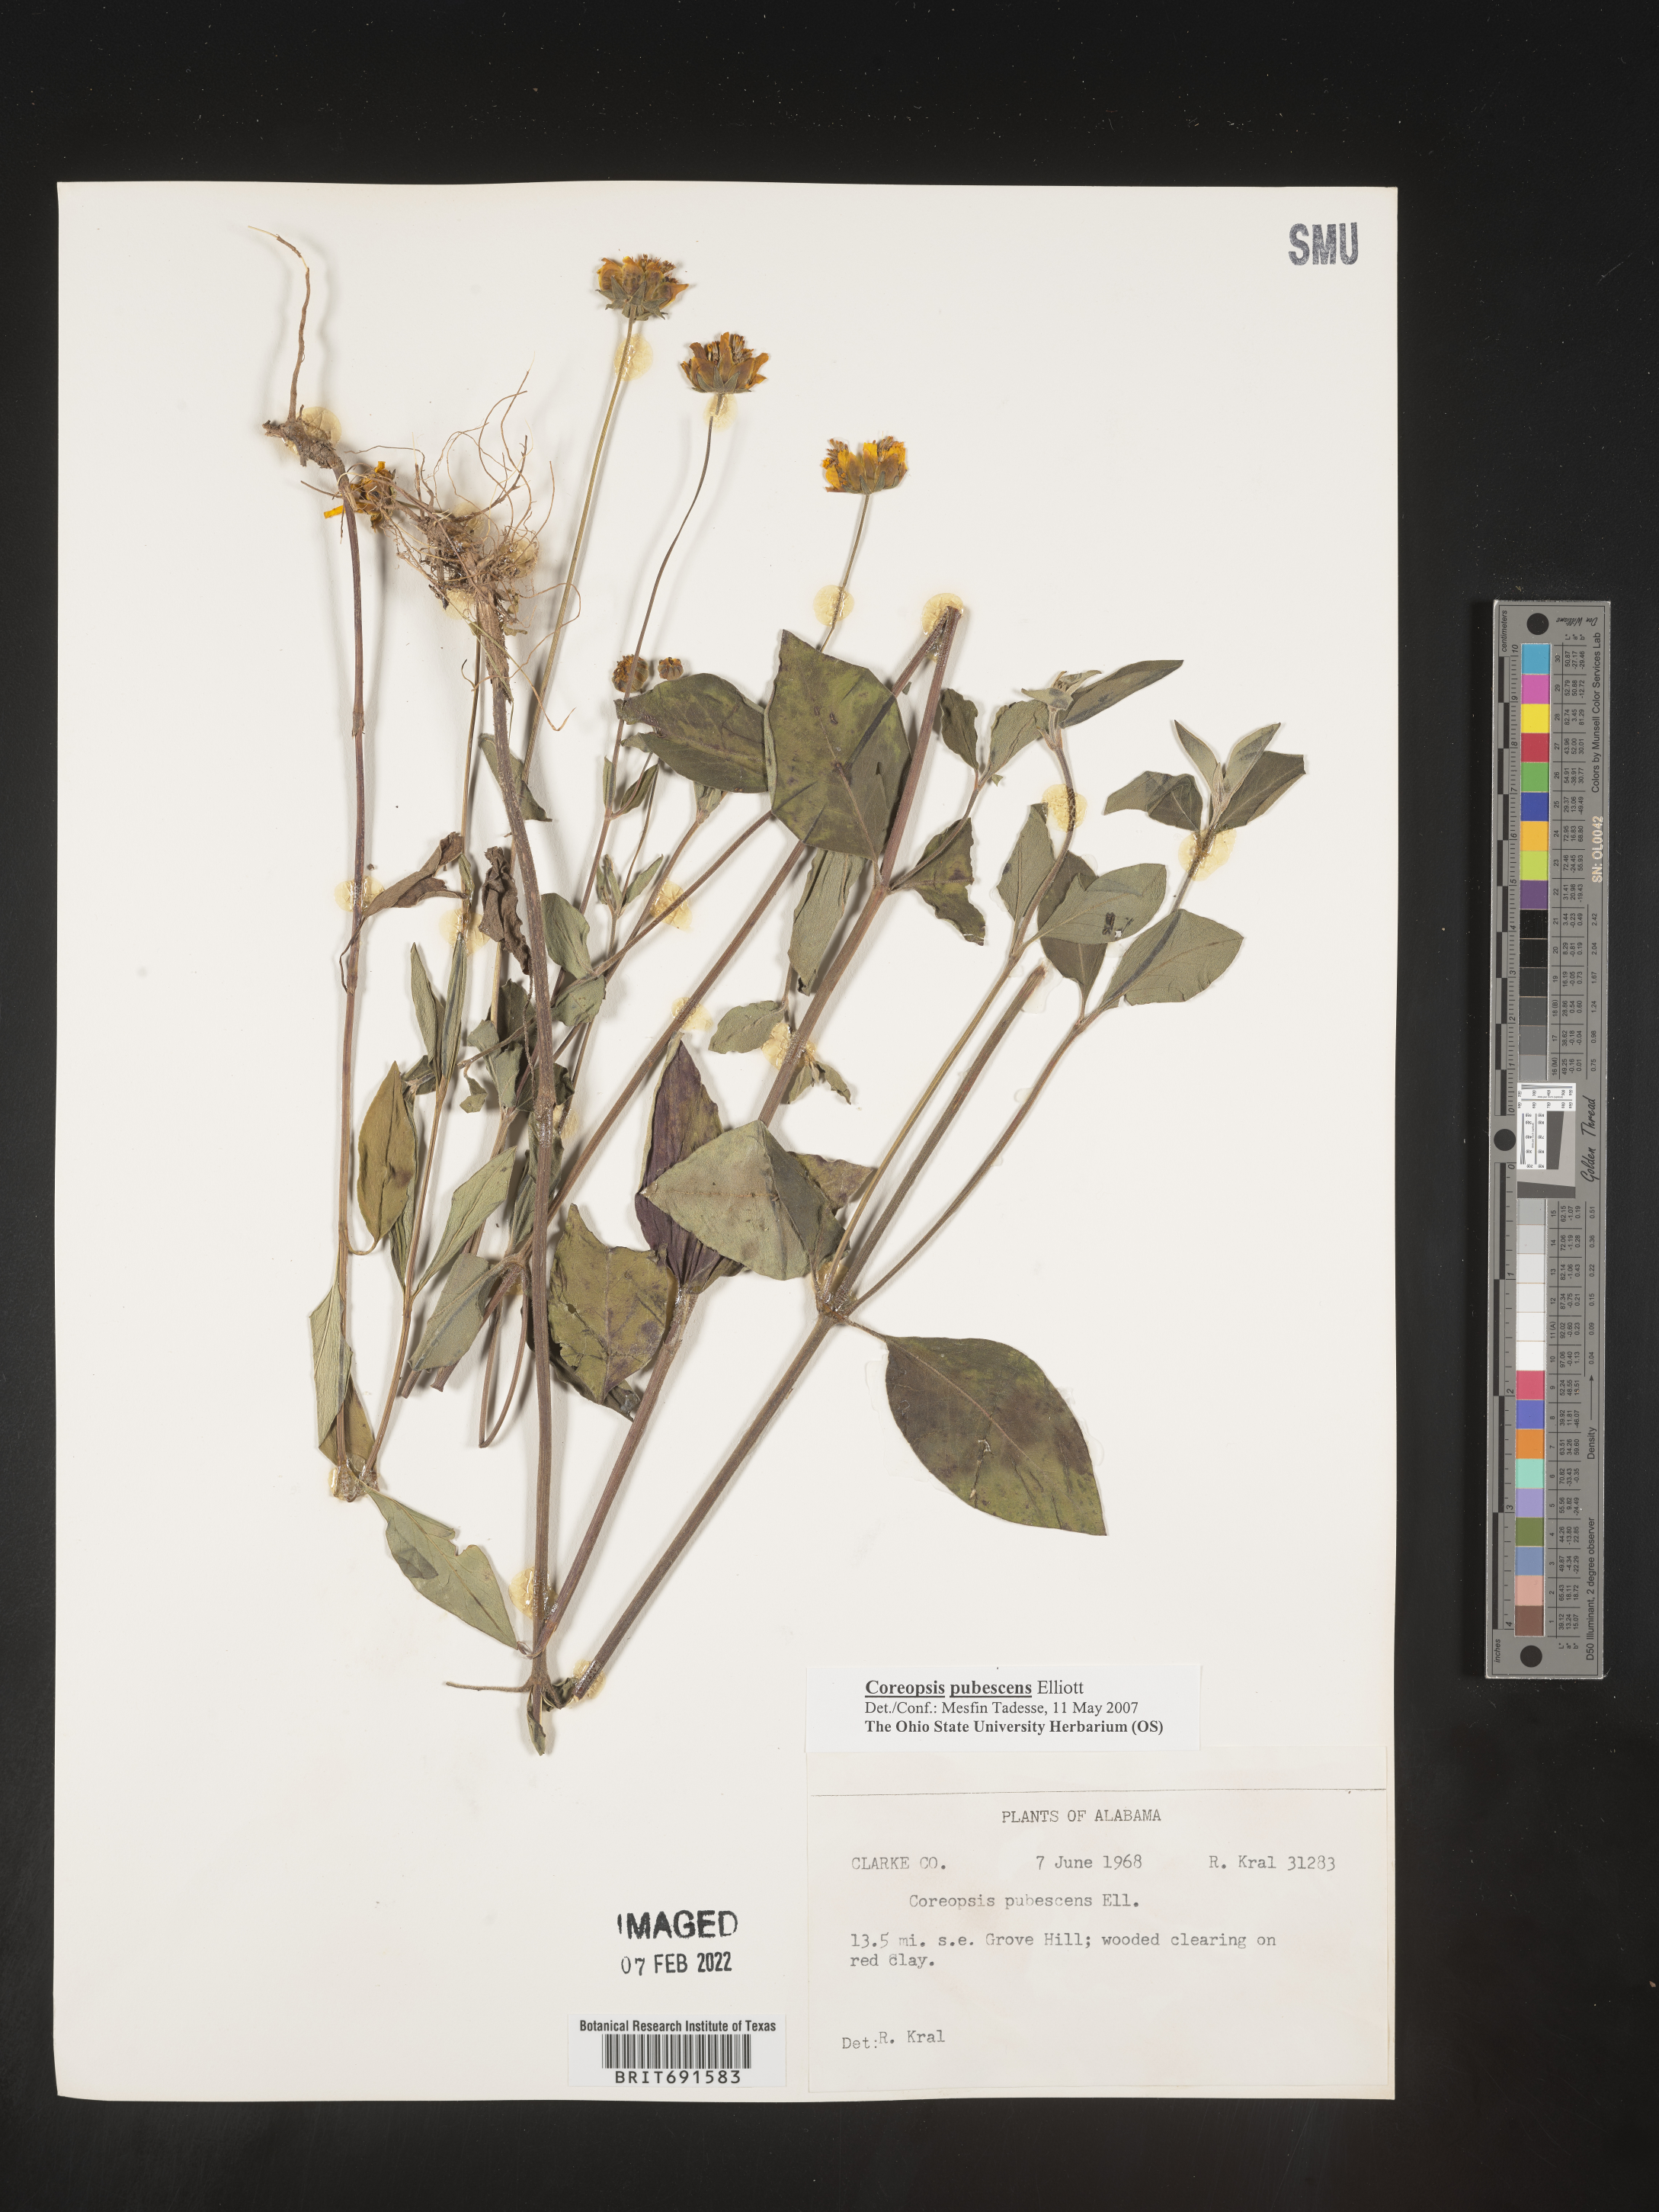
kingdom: Plantae
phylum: Tracheophyta
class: Magnoliopsida
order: Asterales
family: Asteraceae
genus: Coreopsis
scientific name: Coreopsis pubescens
